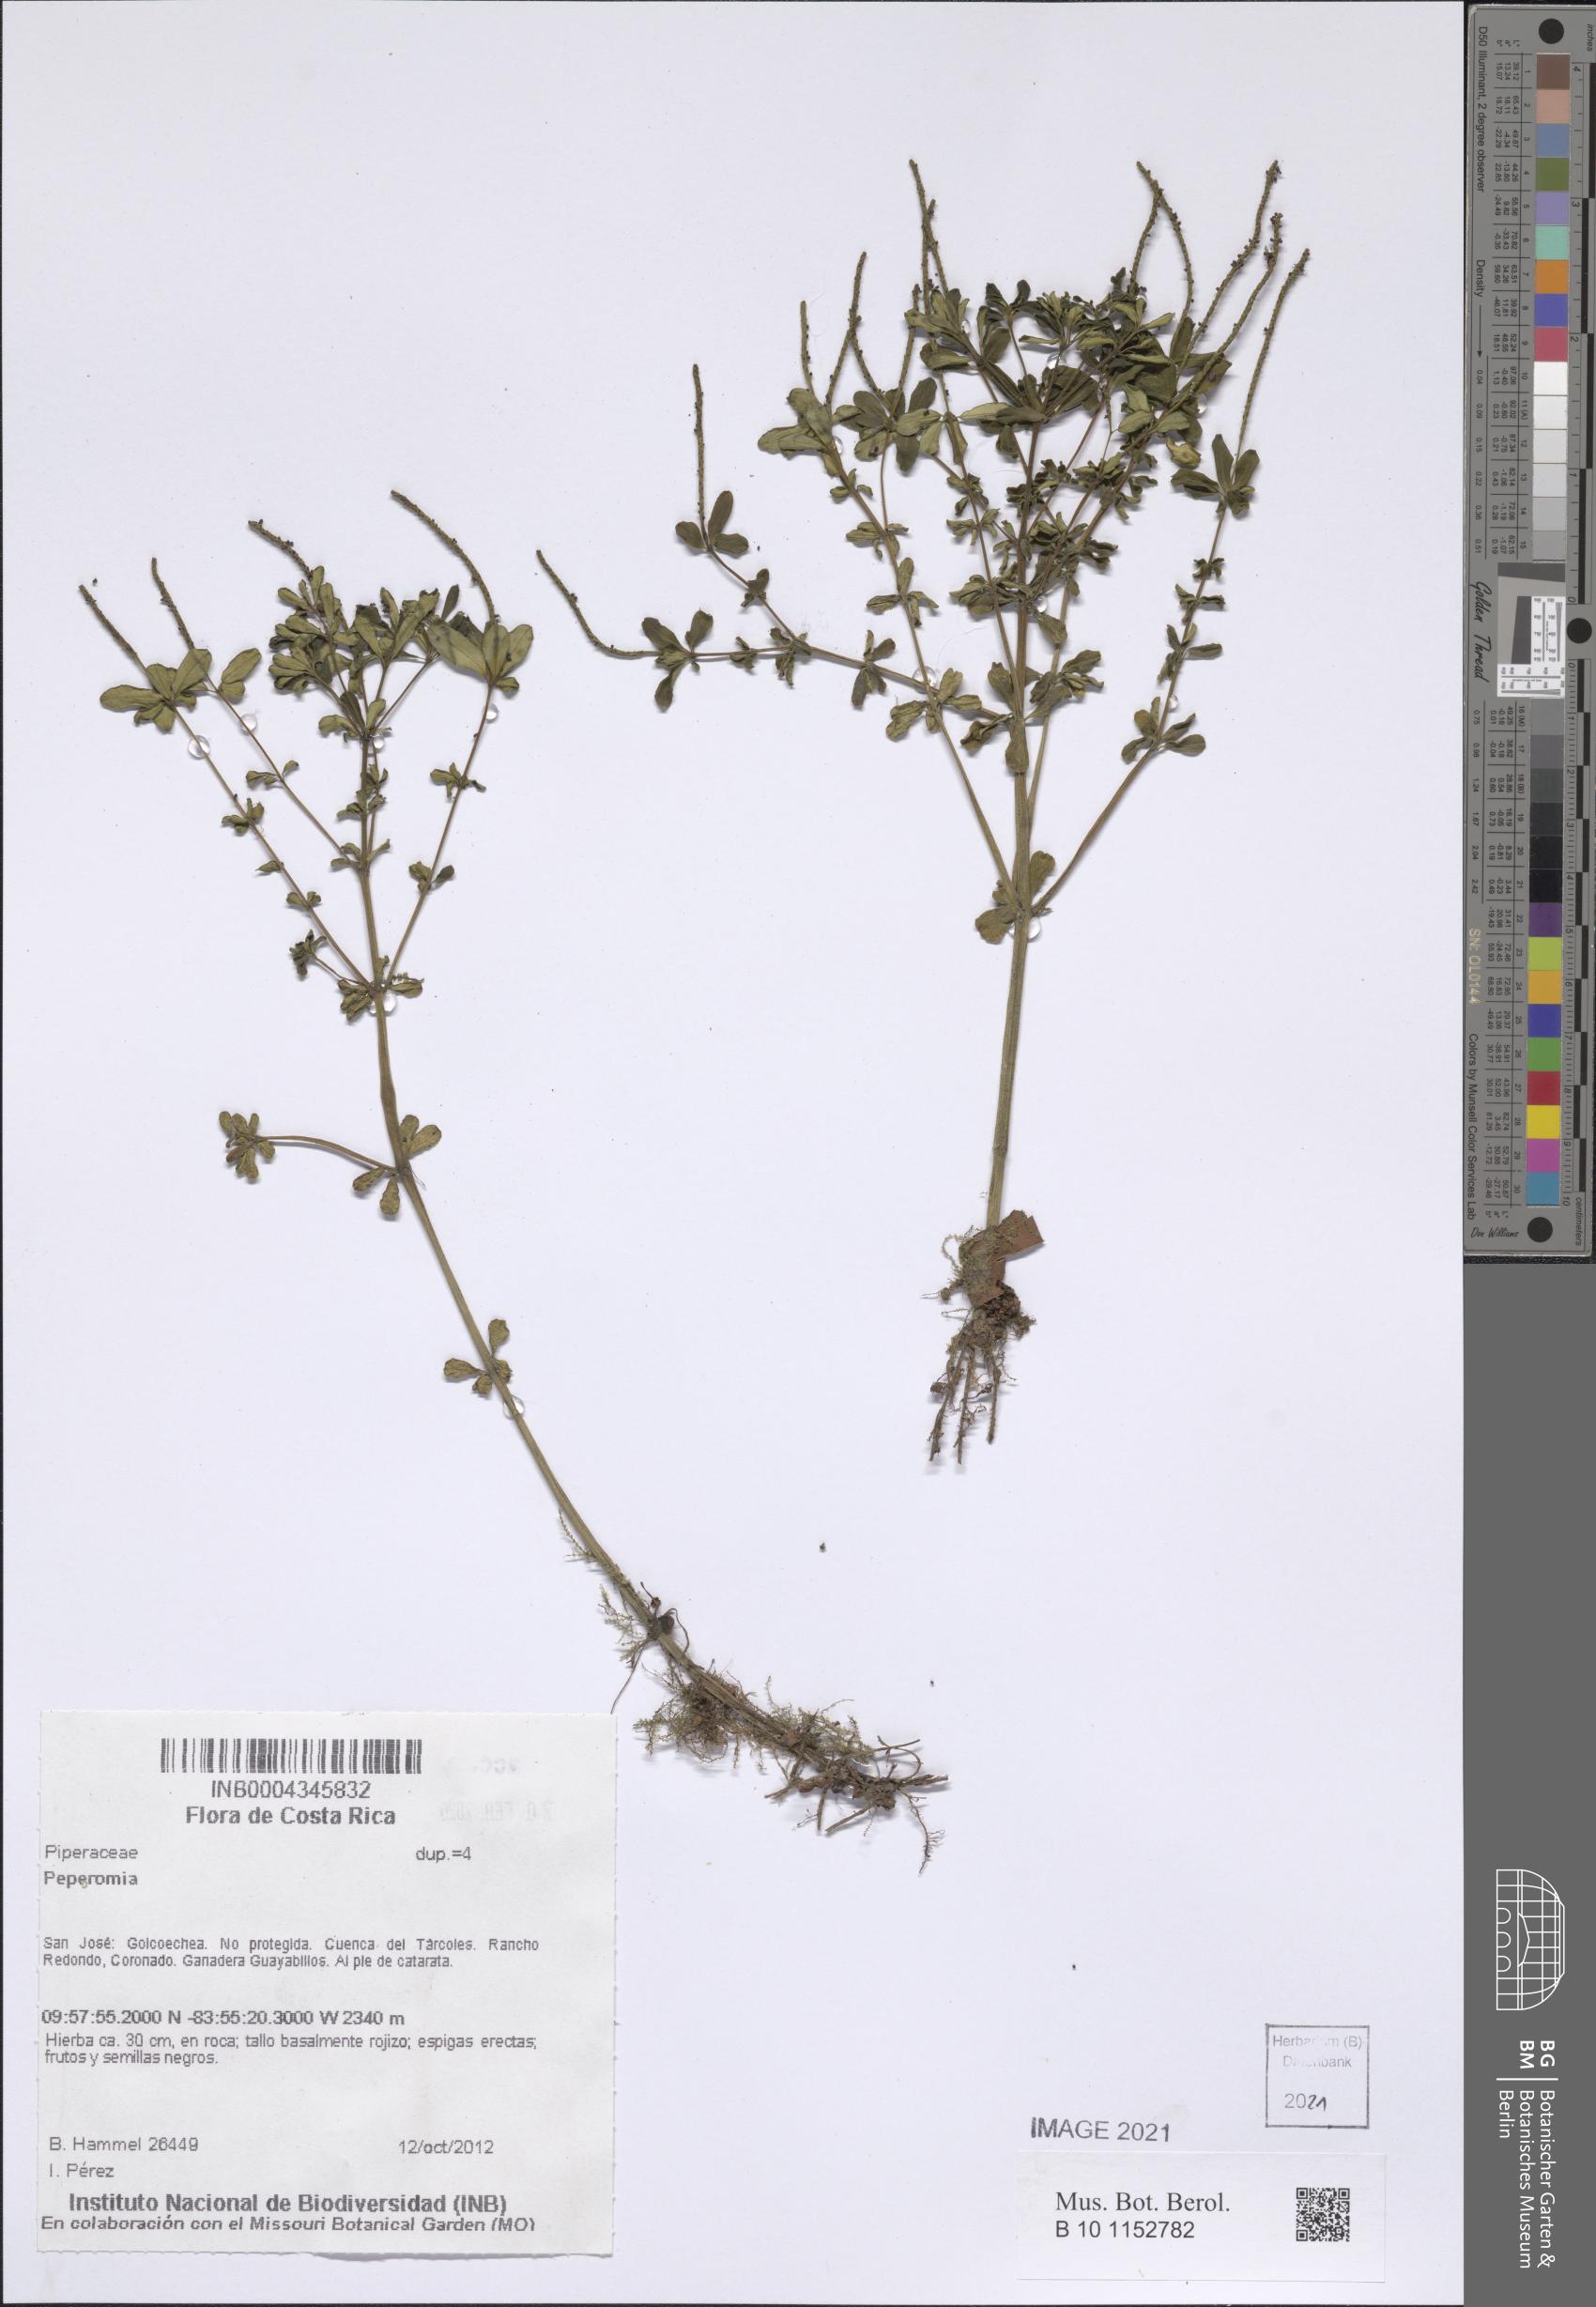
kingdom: Plantae
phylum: Tracheophyta
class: Magnoliopsida
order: Piperales
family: Piperaceae
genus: Peperomia
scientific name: Peperomia
